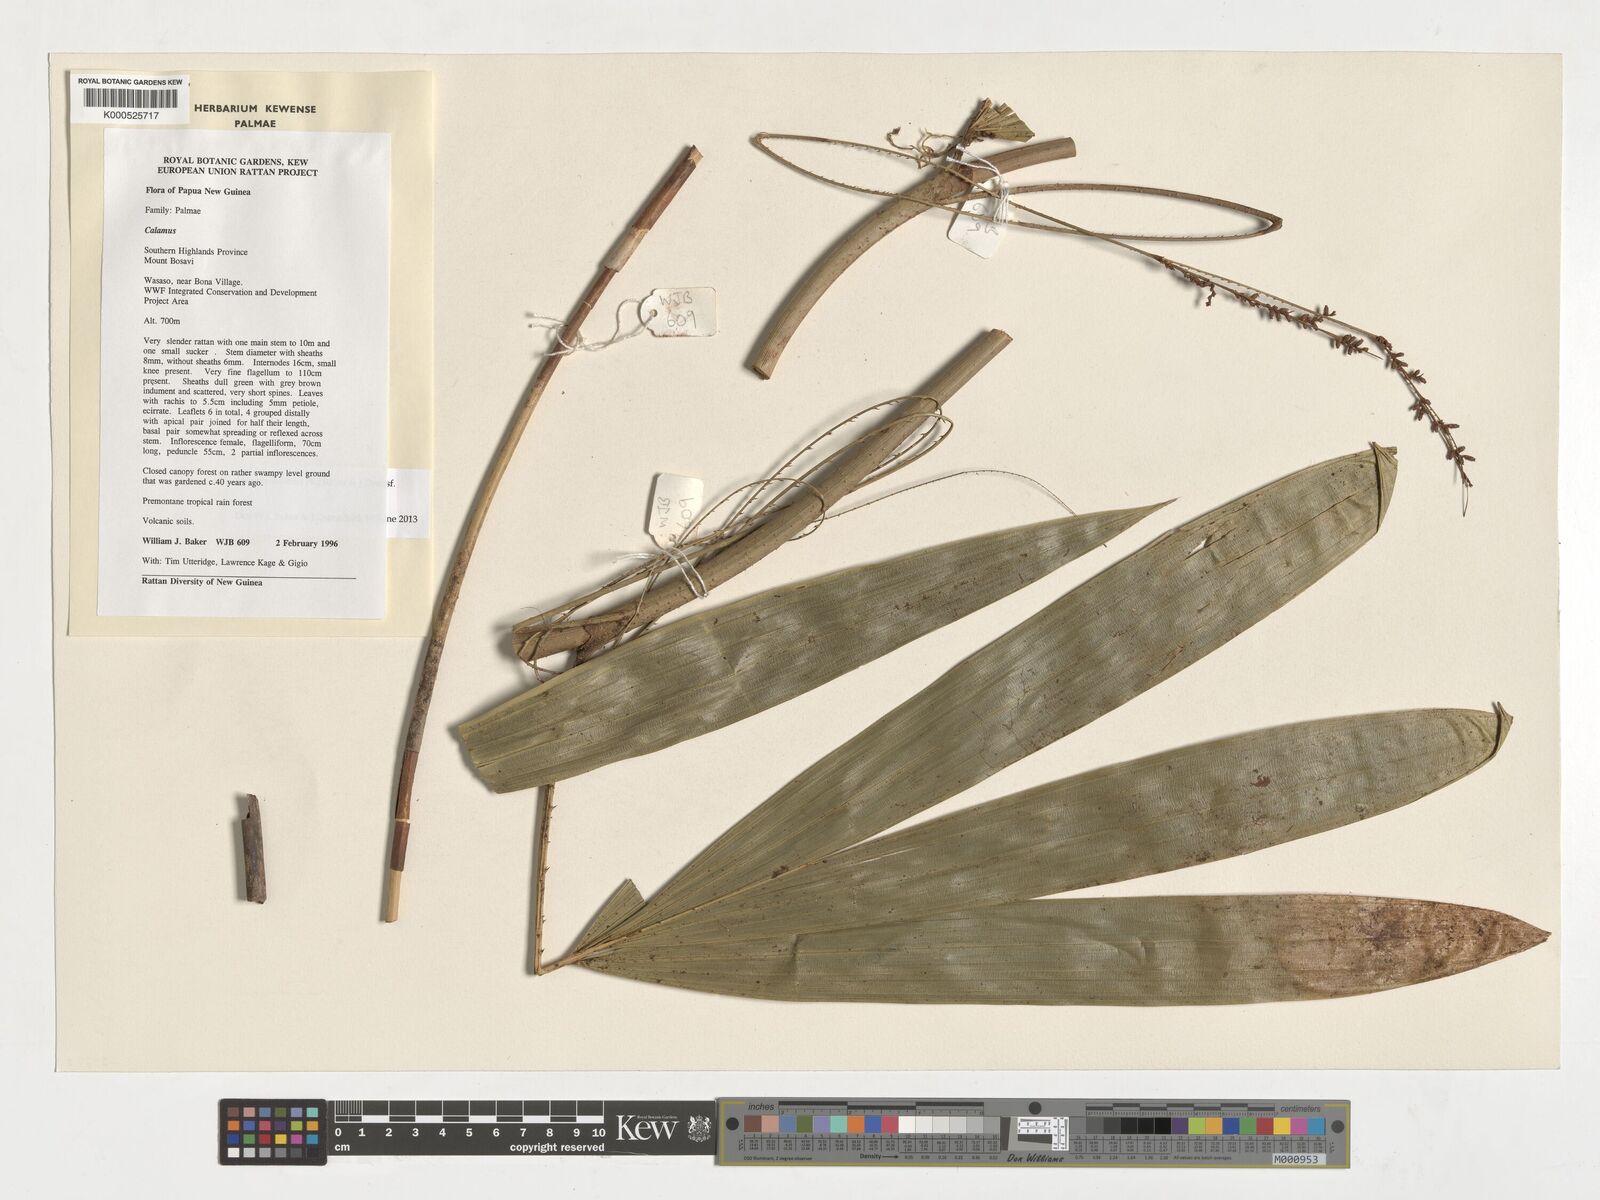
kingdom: Plantae
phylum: Tracheophyta
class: Liliopsida
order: Arecales
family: Arecaceae
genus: Calamus
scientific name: Calamus
